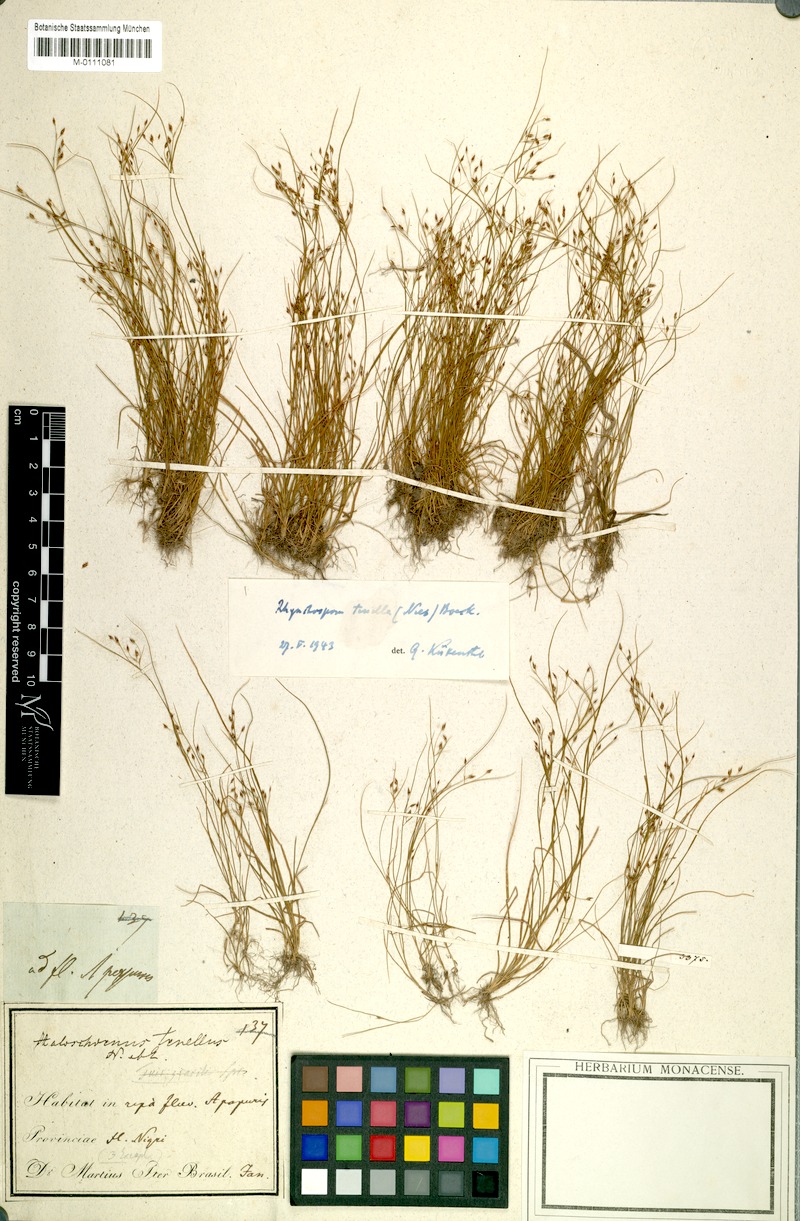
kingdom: Plantae
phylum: Tracheophyta
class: Liliopsida
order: Poales
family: Cyperaceae
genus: Rhynchospora
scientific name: Rhynchospora tenella
